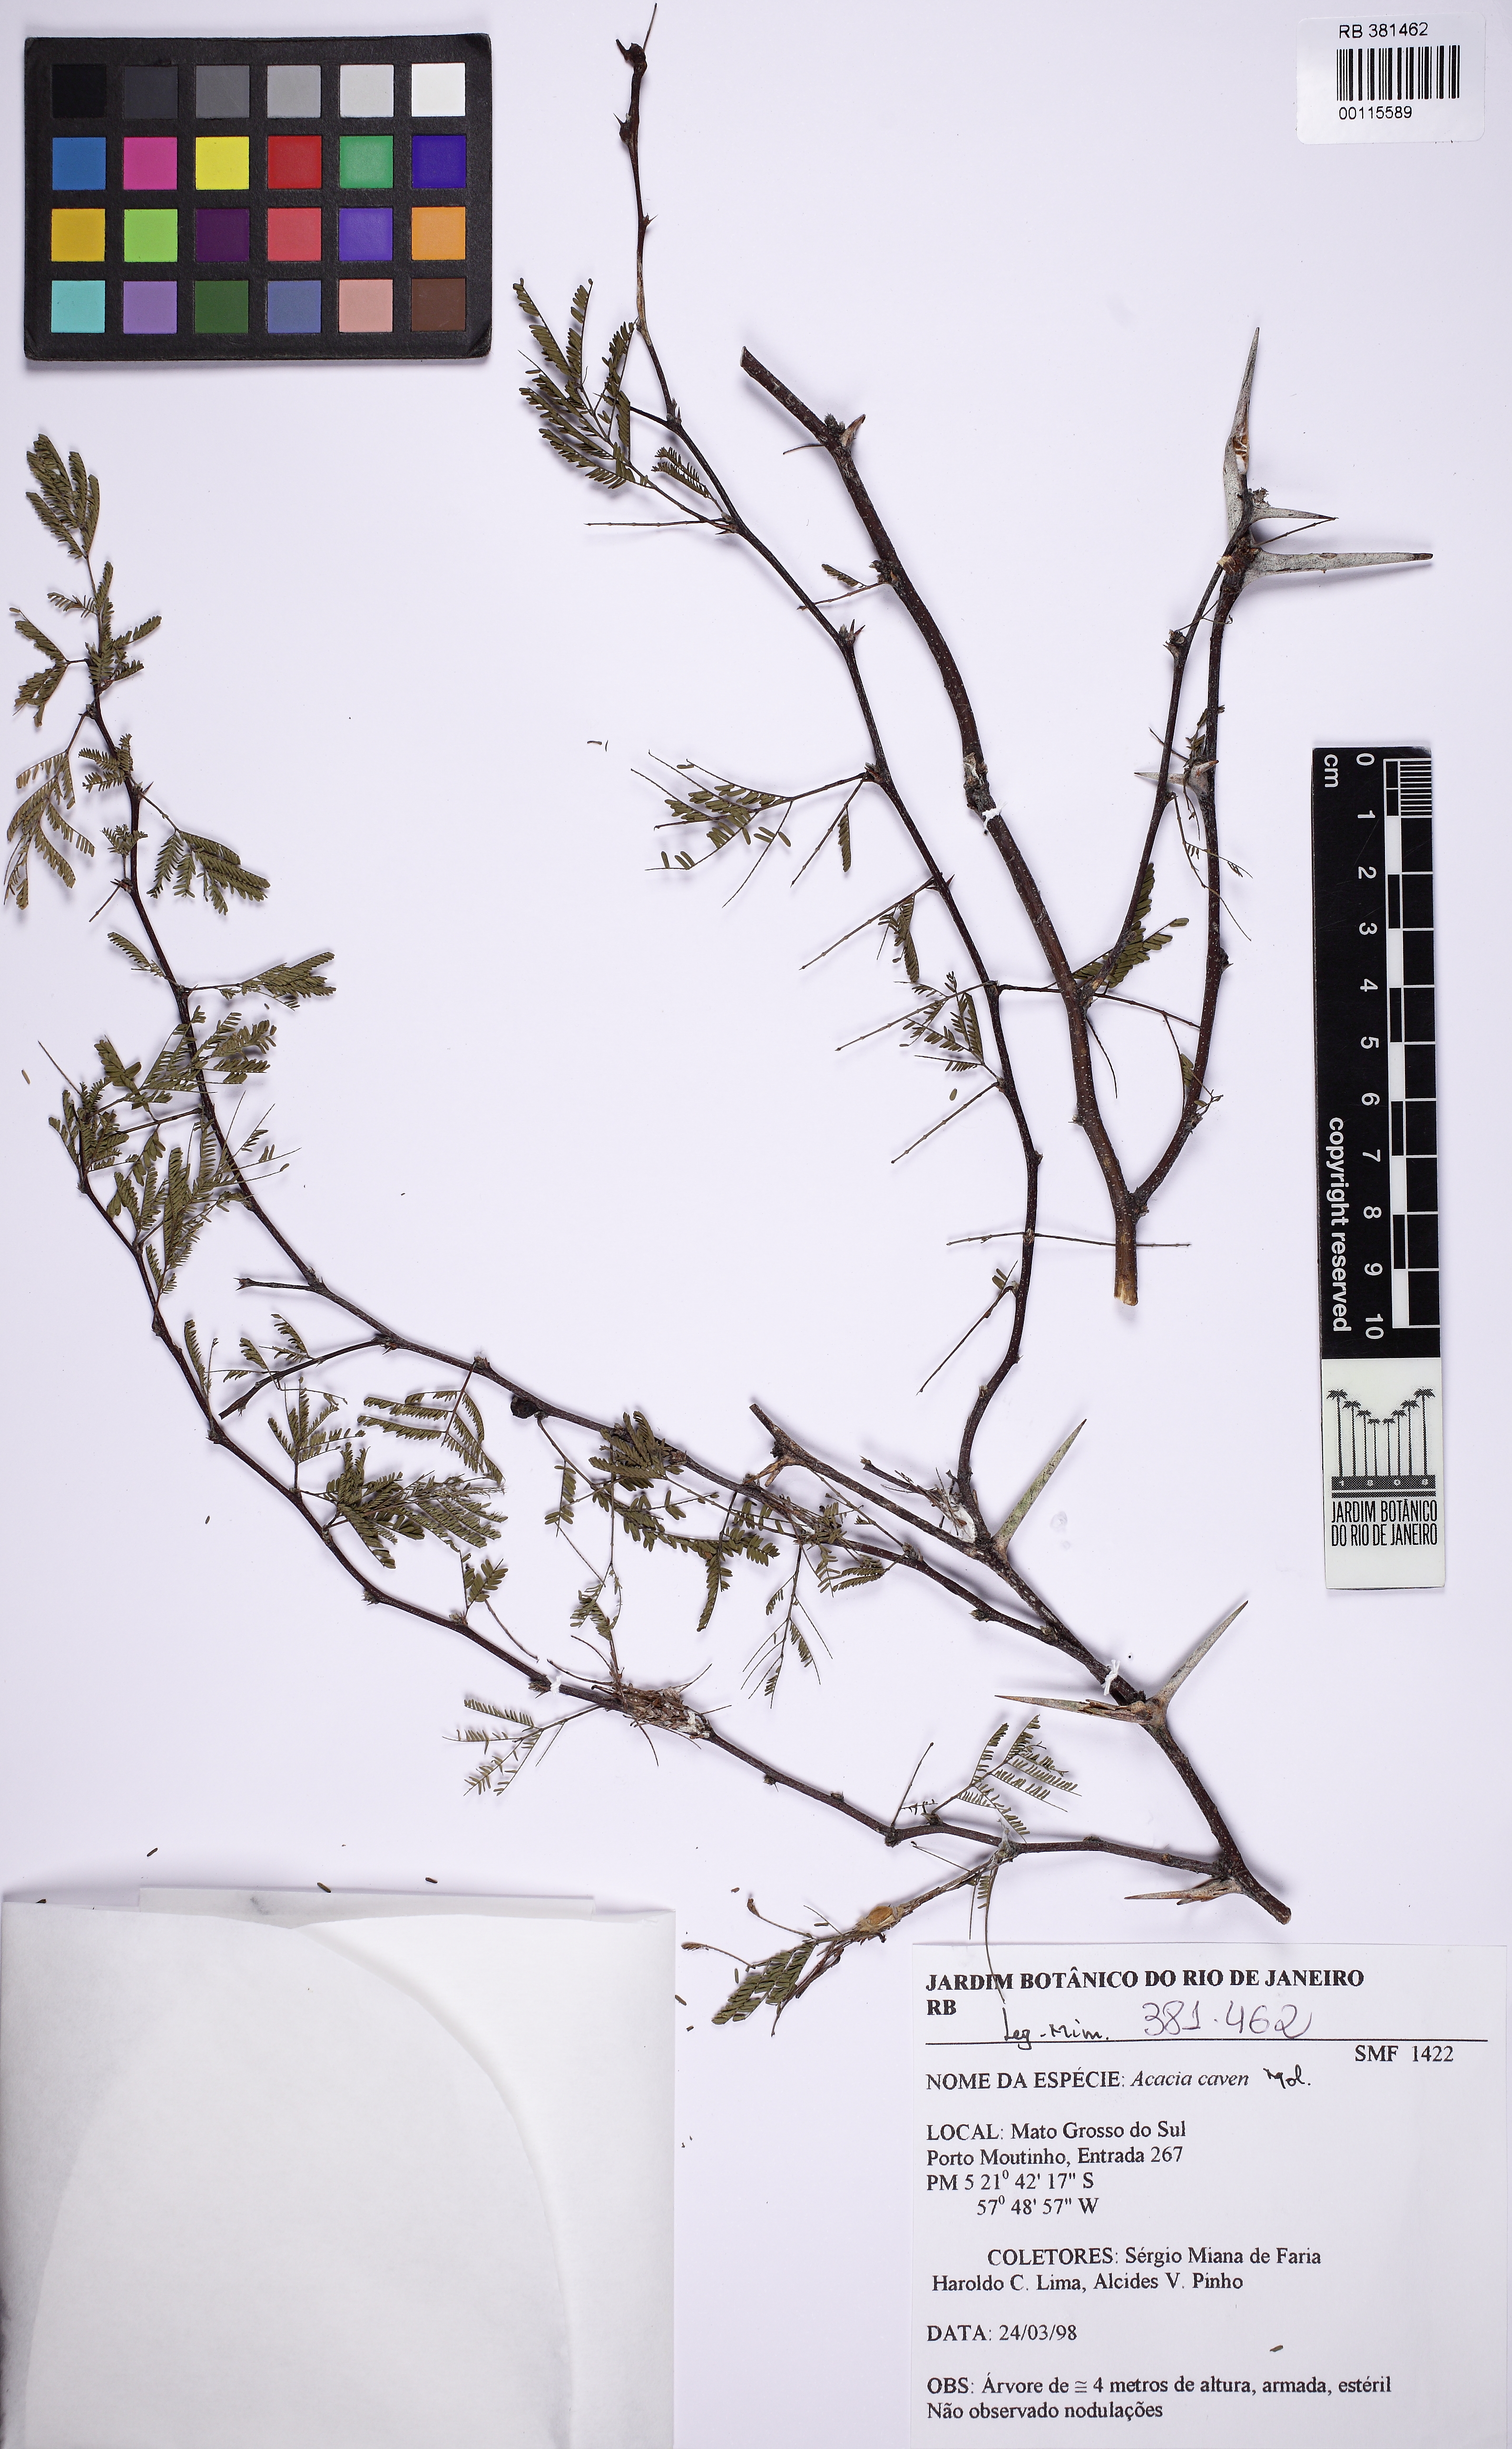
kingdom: Plantae
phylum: Tracheophyta
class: Magnoliopsida
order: Fabales
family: Fabaceae
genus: Vachellia
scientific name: Vachellia caven
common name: Roman cassie
